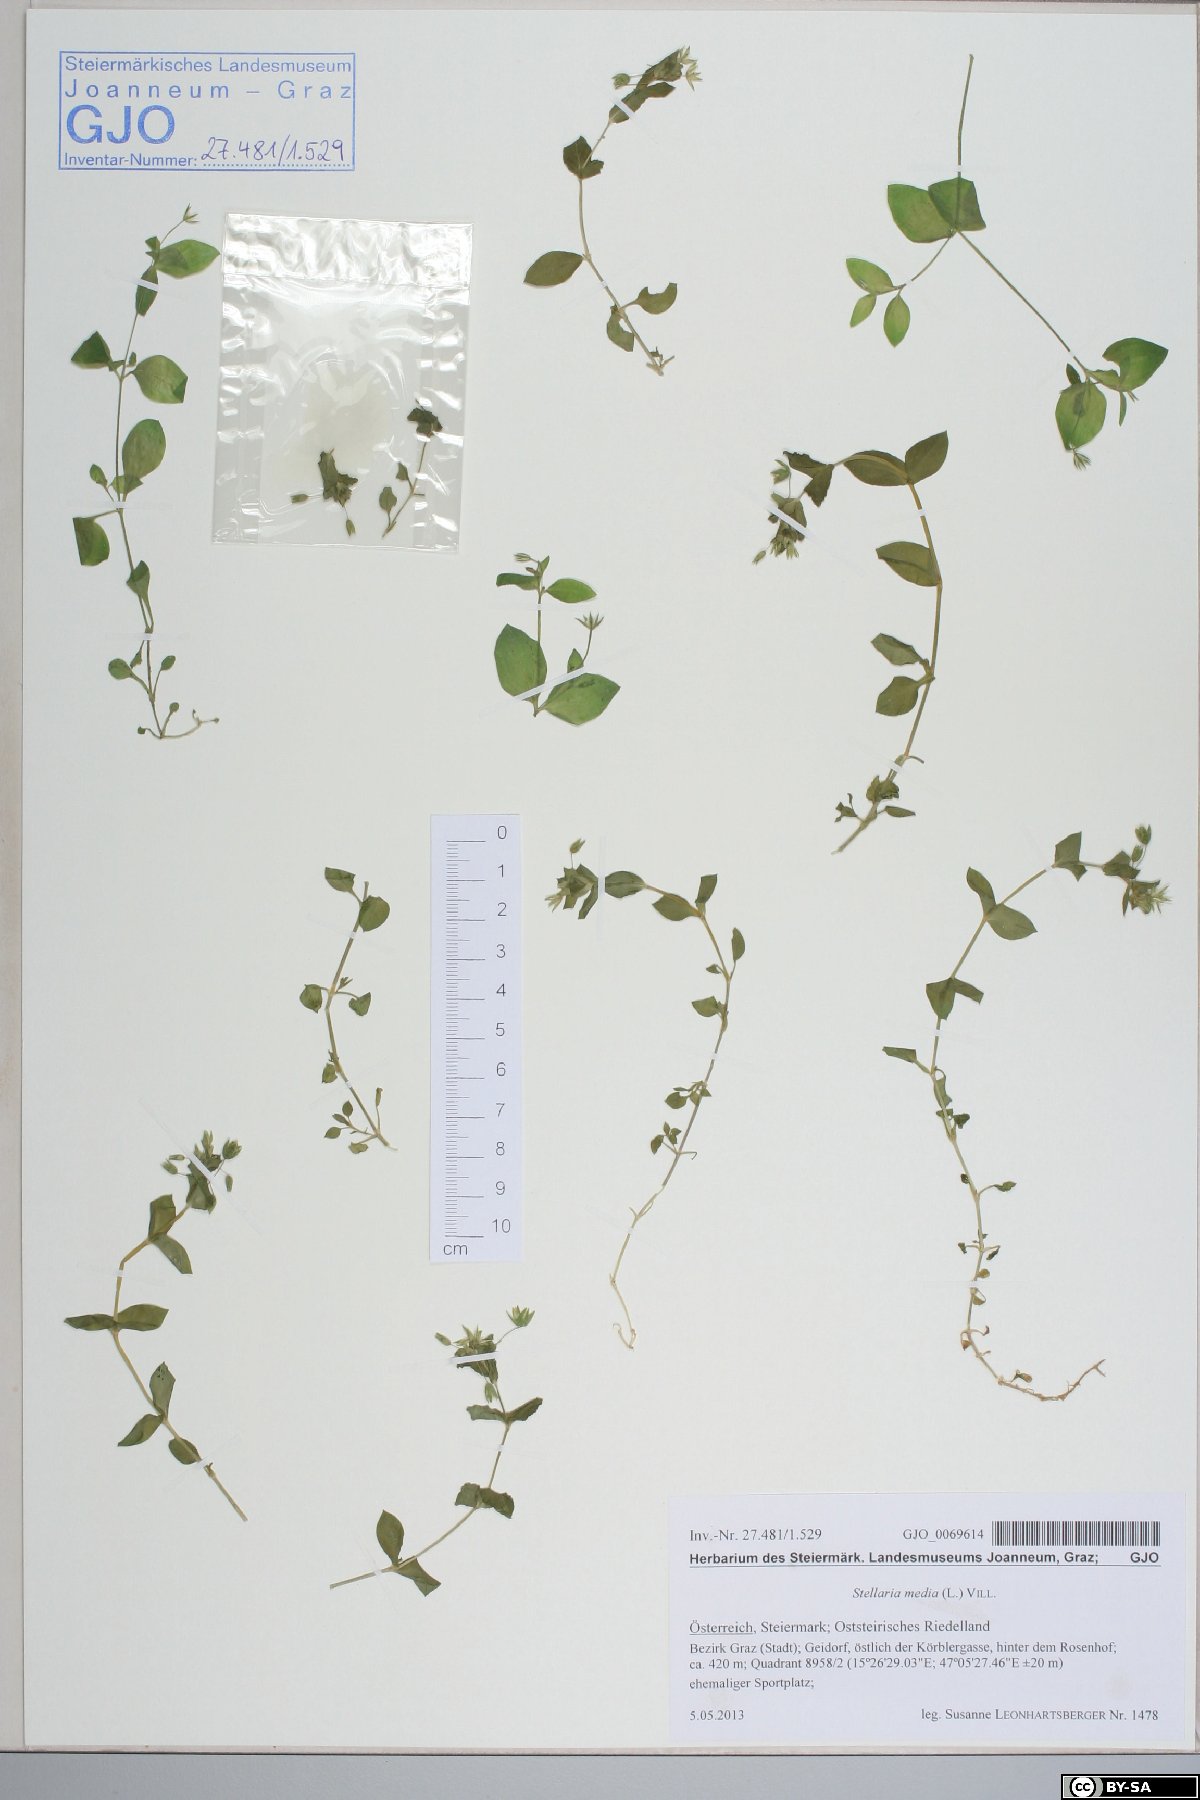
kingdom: Plantae
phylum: Tracheophyta
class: Magnoliopsida
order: Caryophyllales
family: Caryophyllaceae
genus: Stellaria
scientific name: Stellaria media
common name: Common chickweed
